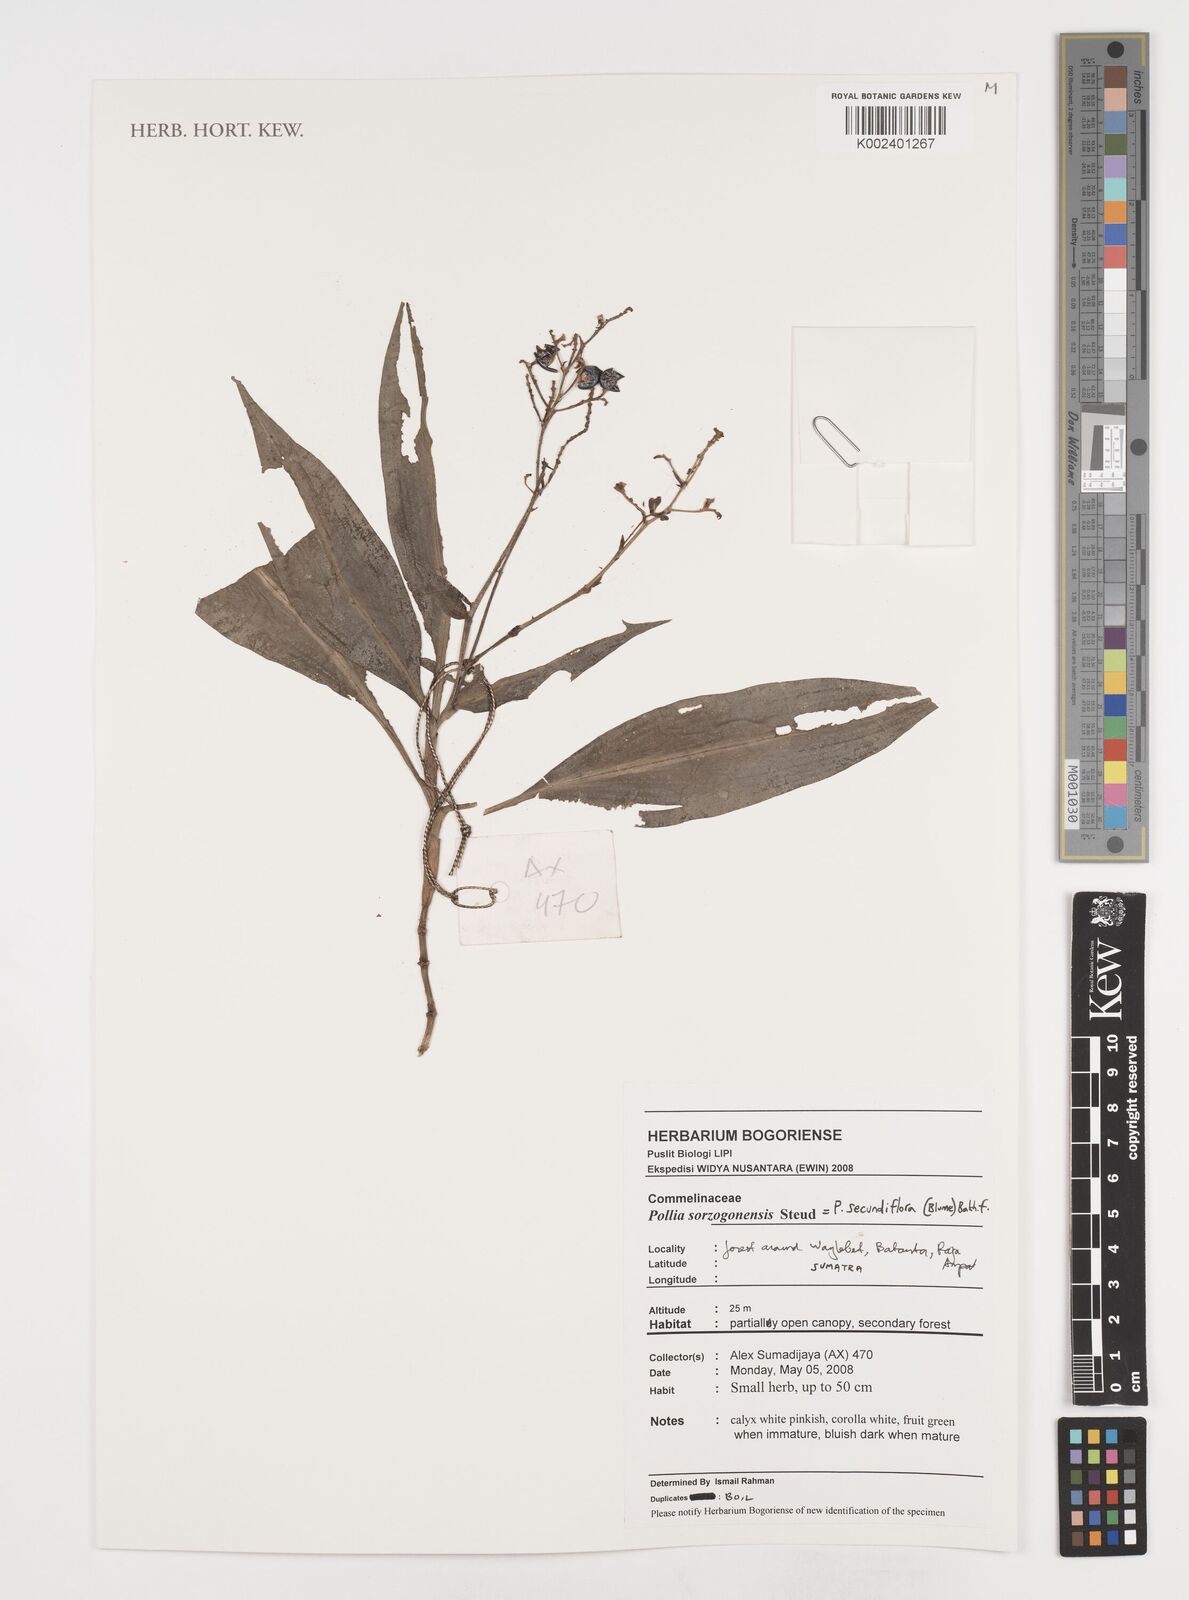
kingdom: Plantae
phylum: Tracheophyta
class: Liliopsida
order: Commelinales
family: Commelinaceae
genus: Pollia
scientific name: Pollia secundiflora
